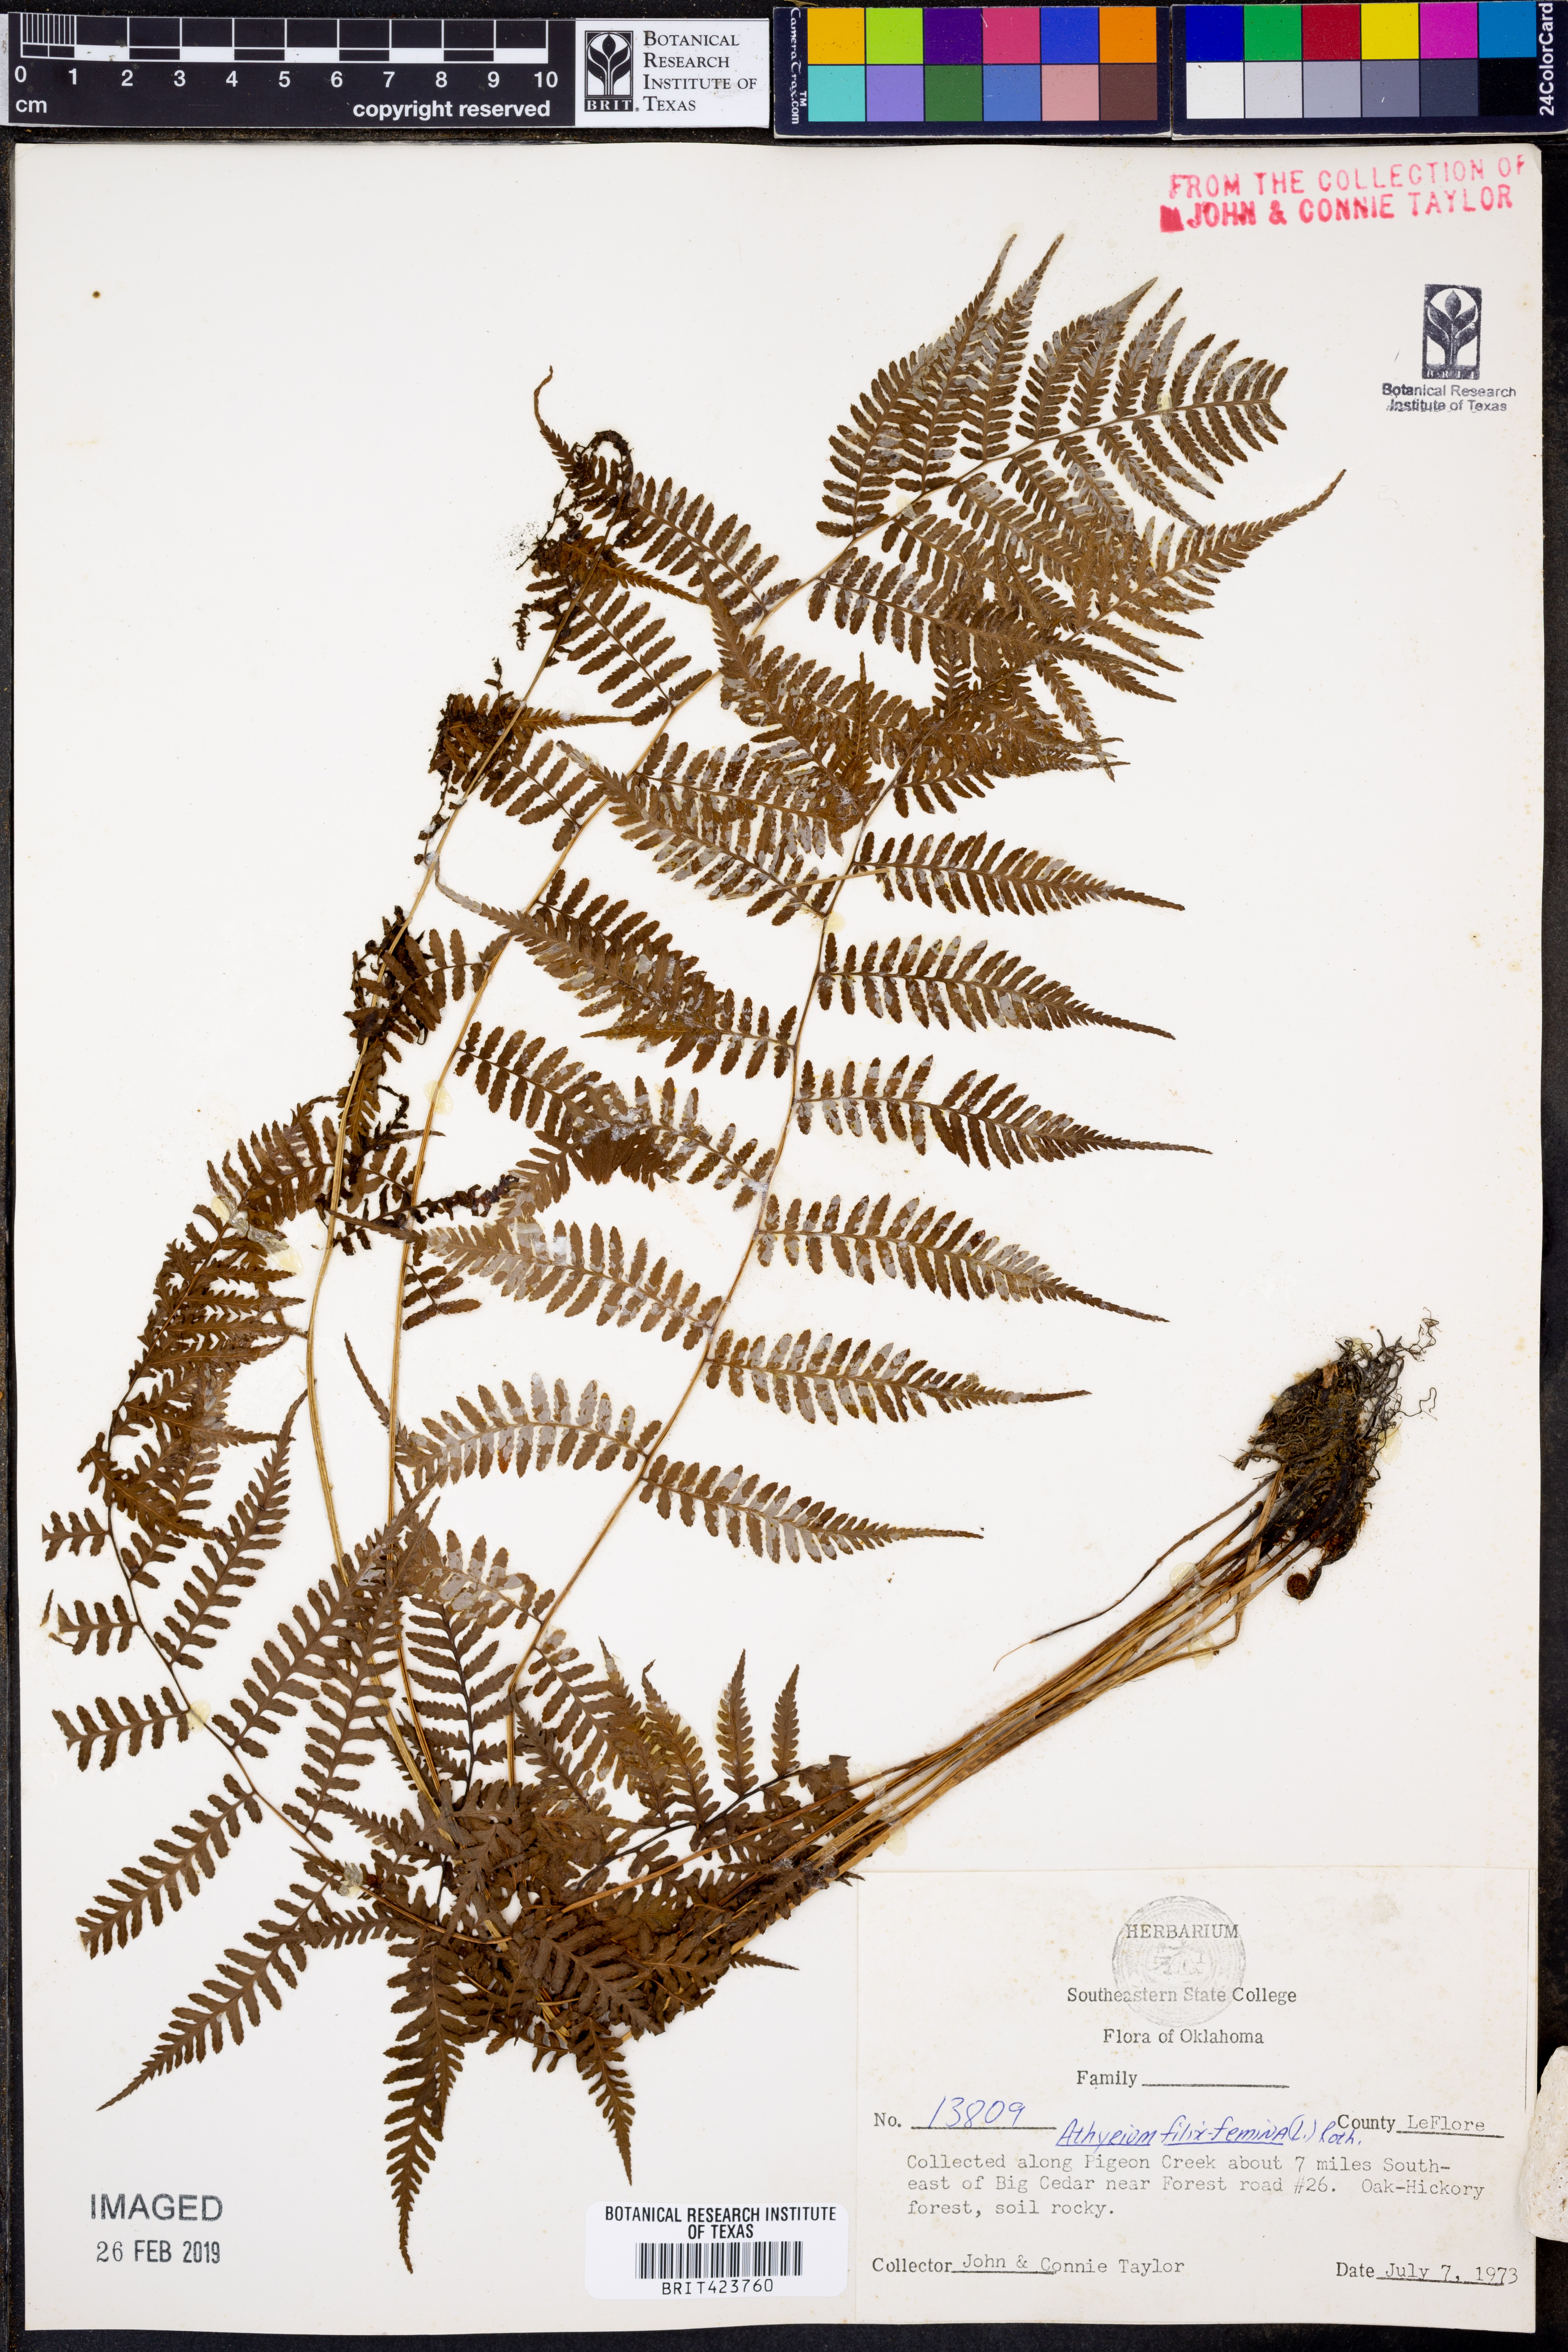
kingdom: Plantae
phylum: Tracheophyta
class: Polypodiopsida
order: Polypodiales
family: Athyriaceae
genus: Athyrium
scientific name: Athyrium filix-femina
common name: Lady fern
